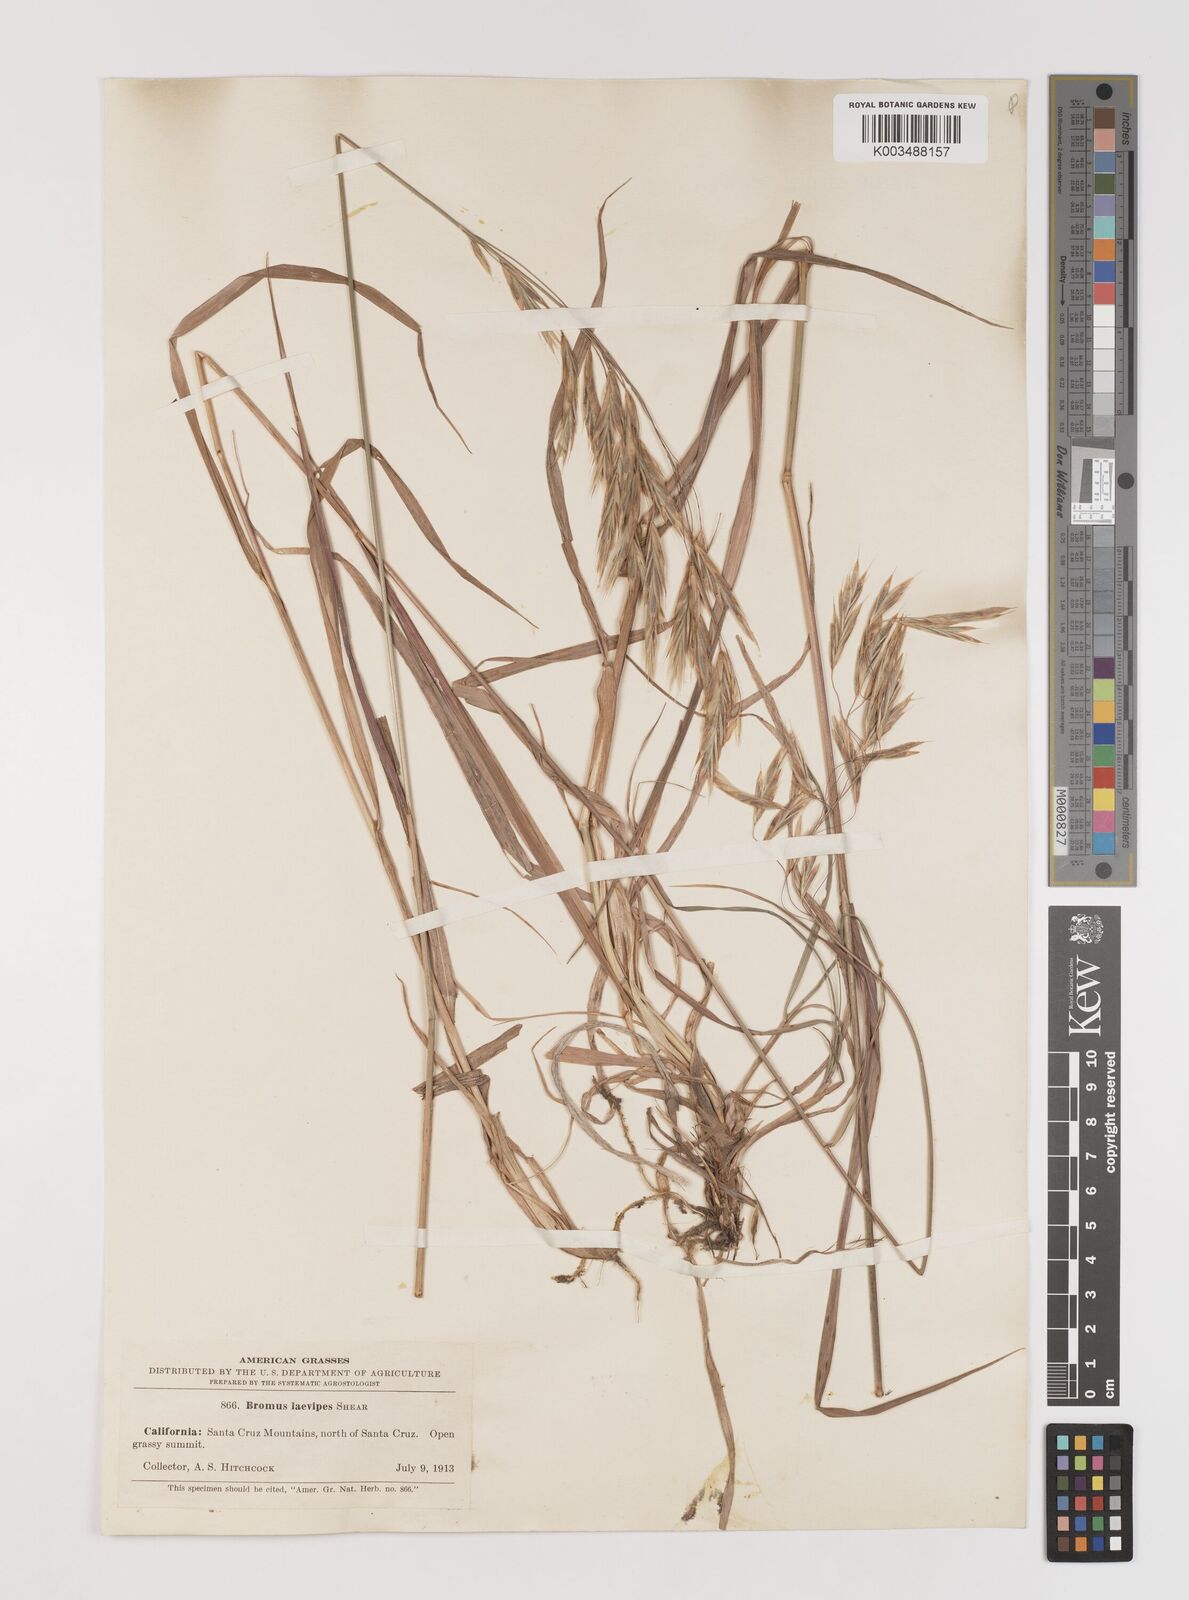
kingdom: Plantae
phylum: Tracheophyta
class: Liliopsida
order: Poales
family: Poaceae
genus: Bromus
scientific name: Bromus laevipes
